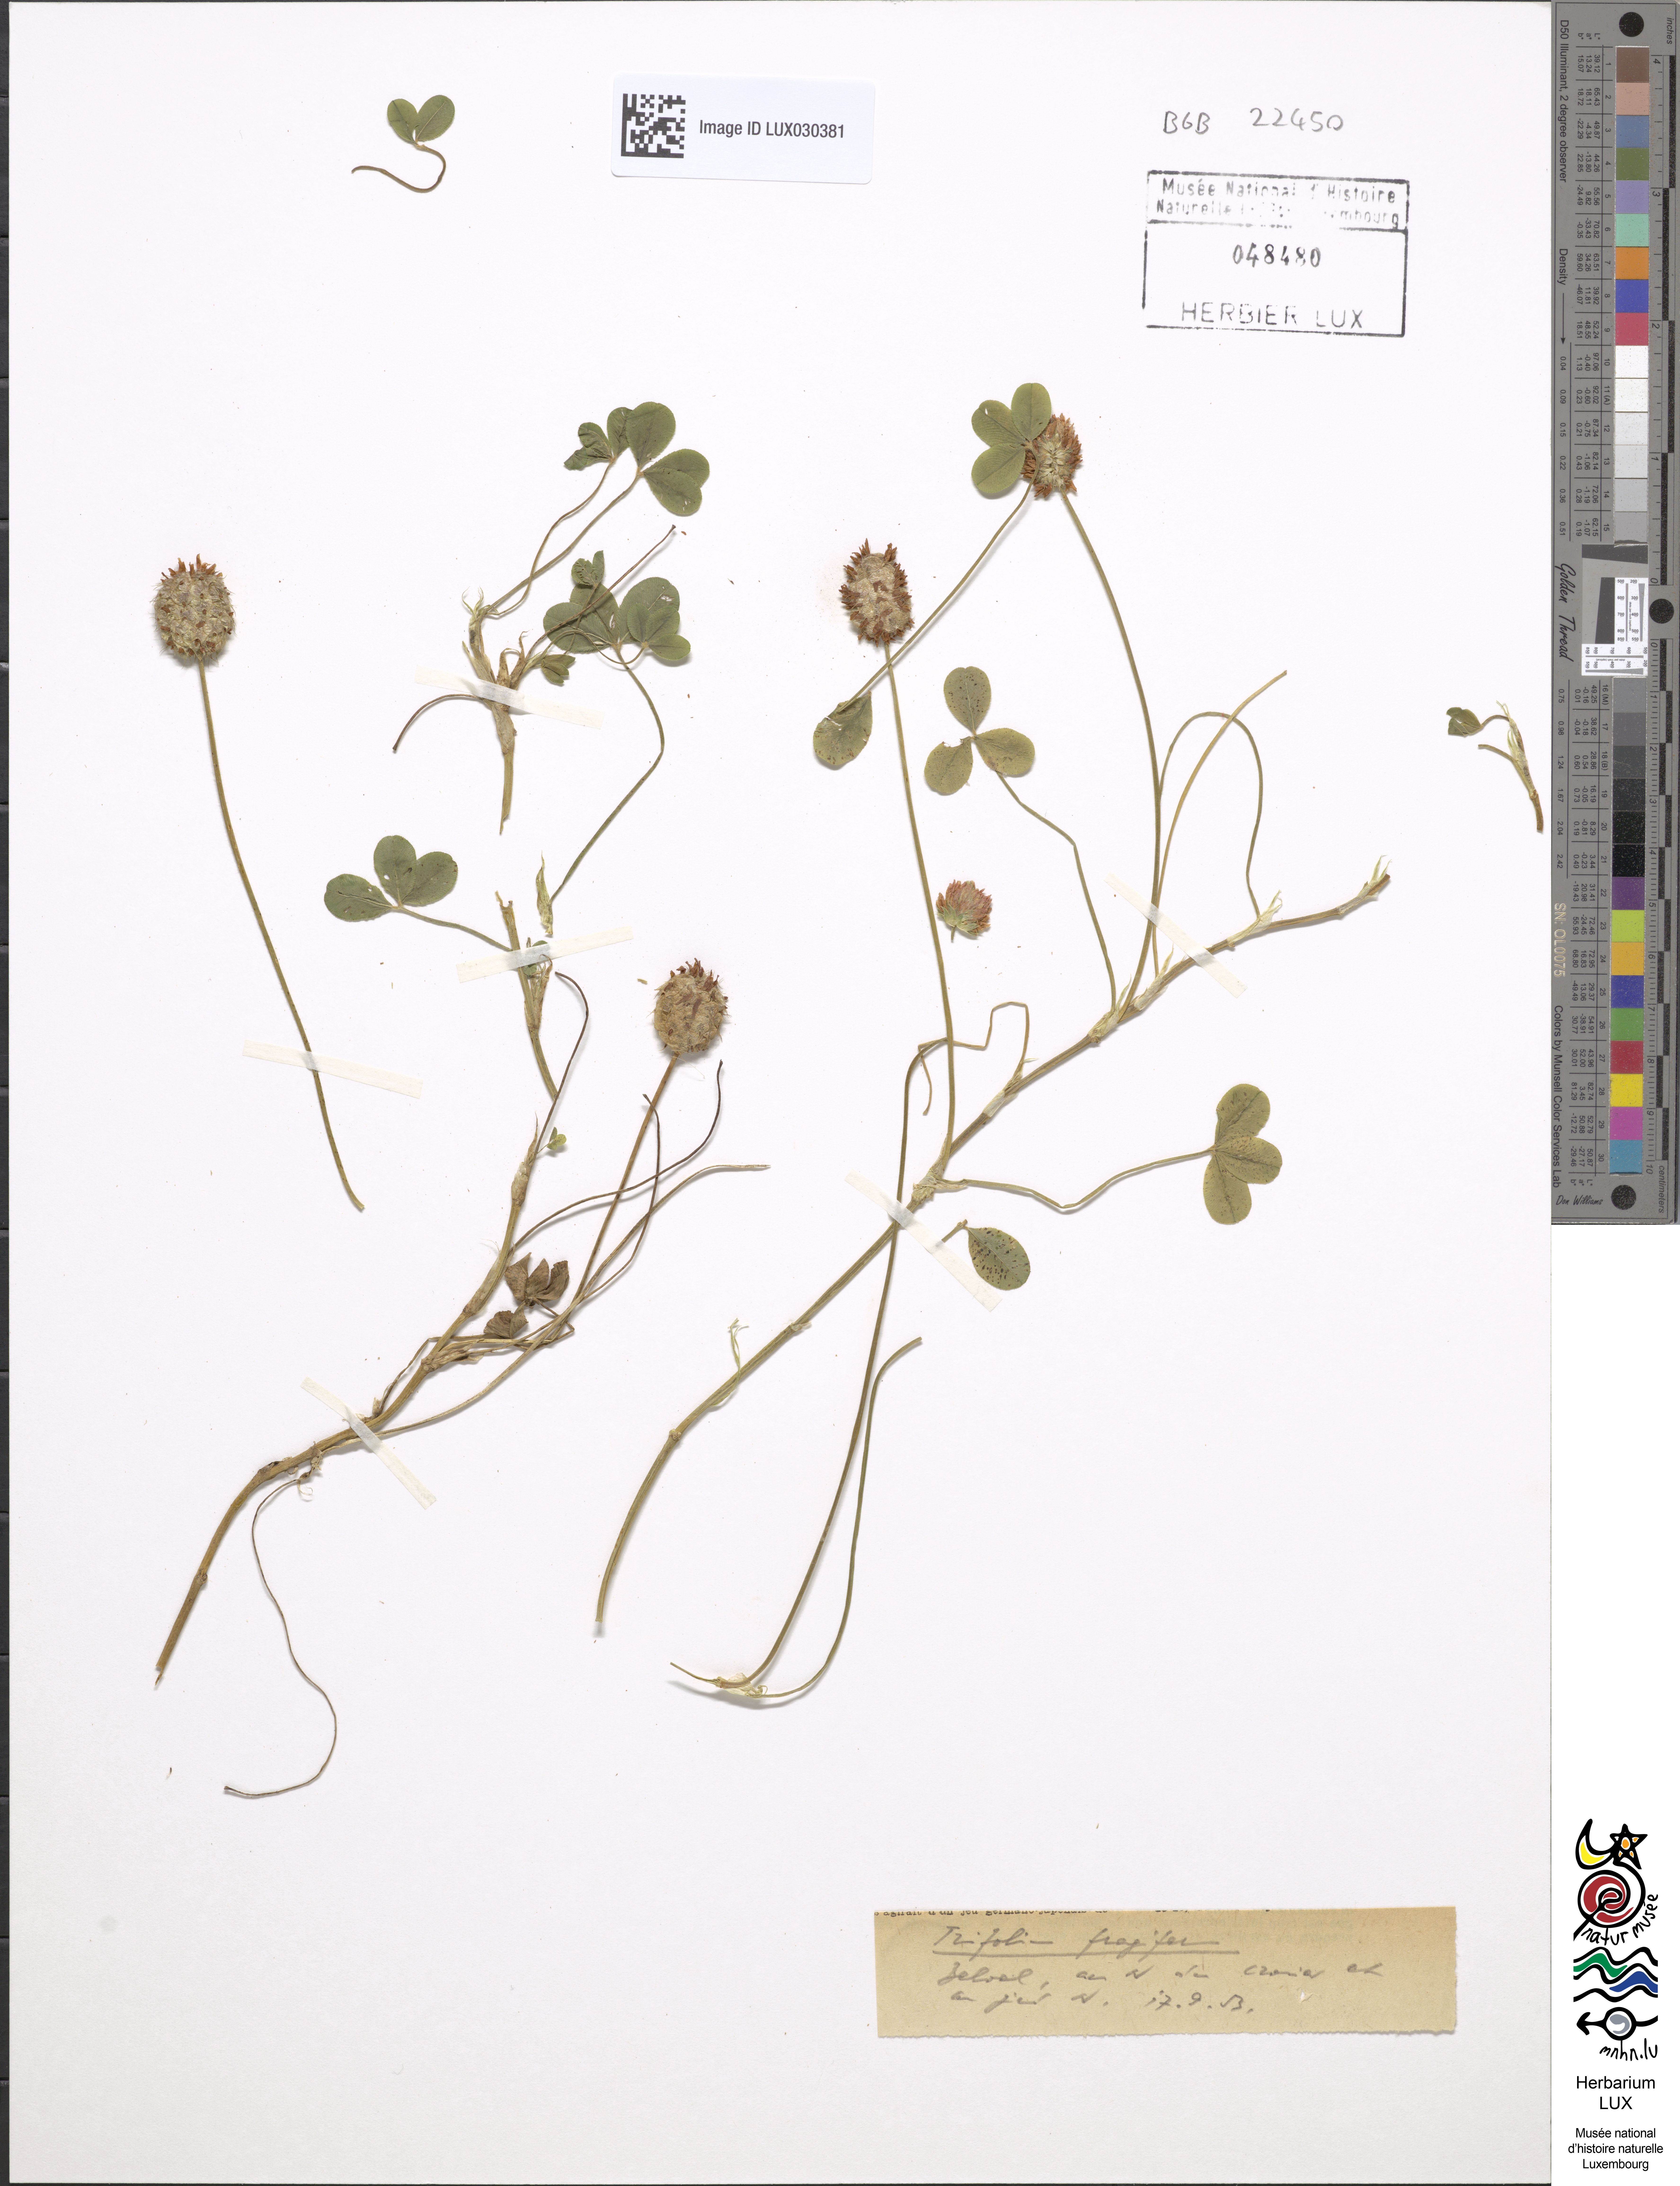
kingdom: Plantae
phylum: Tracheophyta
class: Magnoliopsida
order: Fabales
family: Fabaceae
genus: Trifolium
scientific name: Trifolium fragiferum
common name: Strawberry clover
